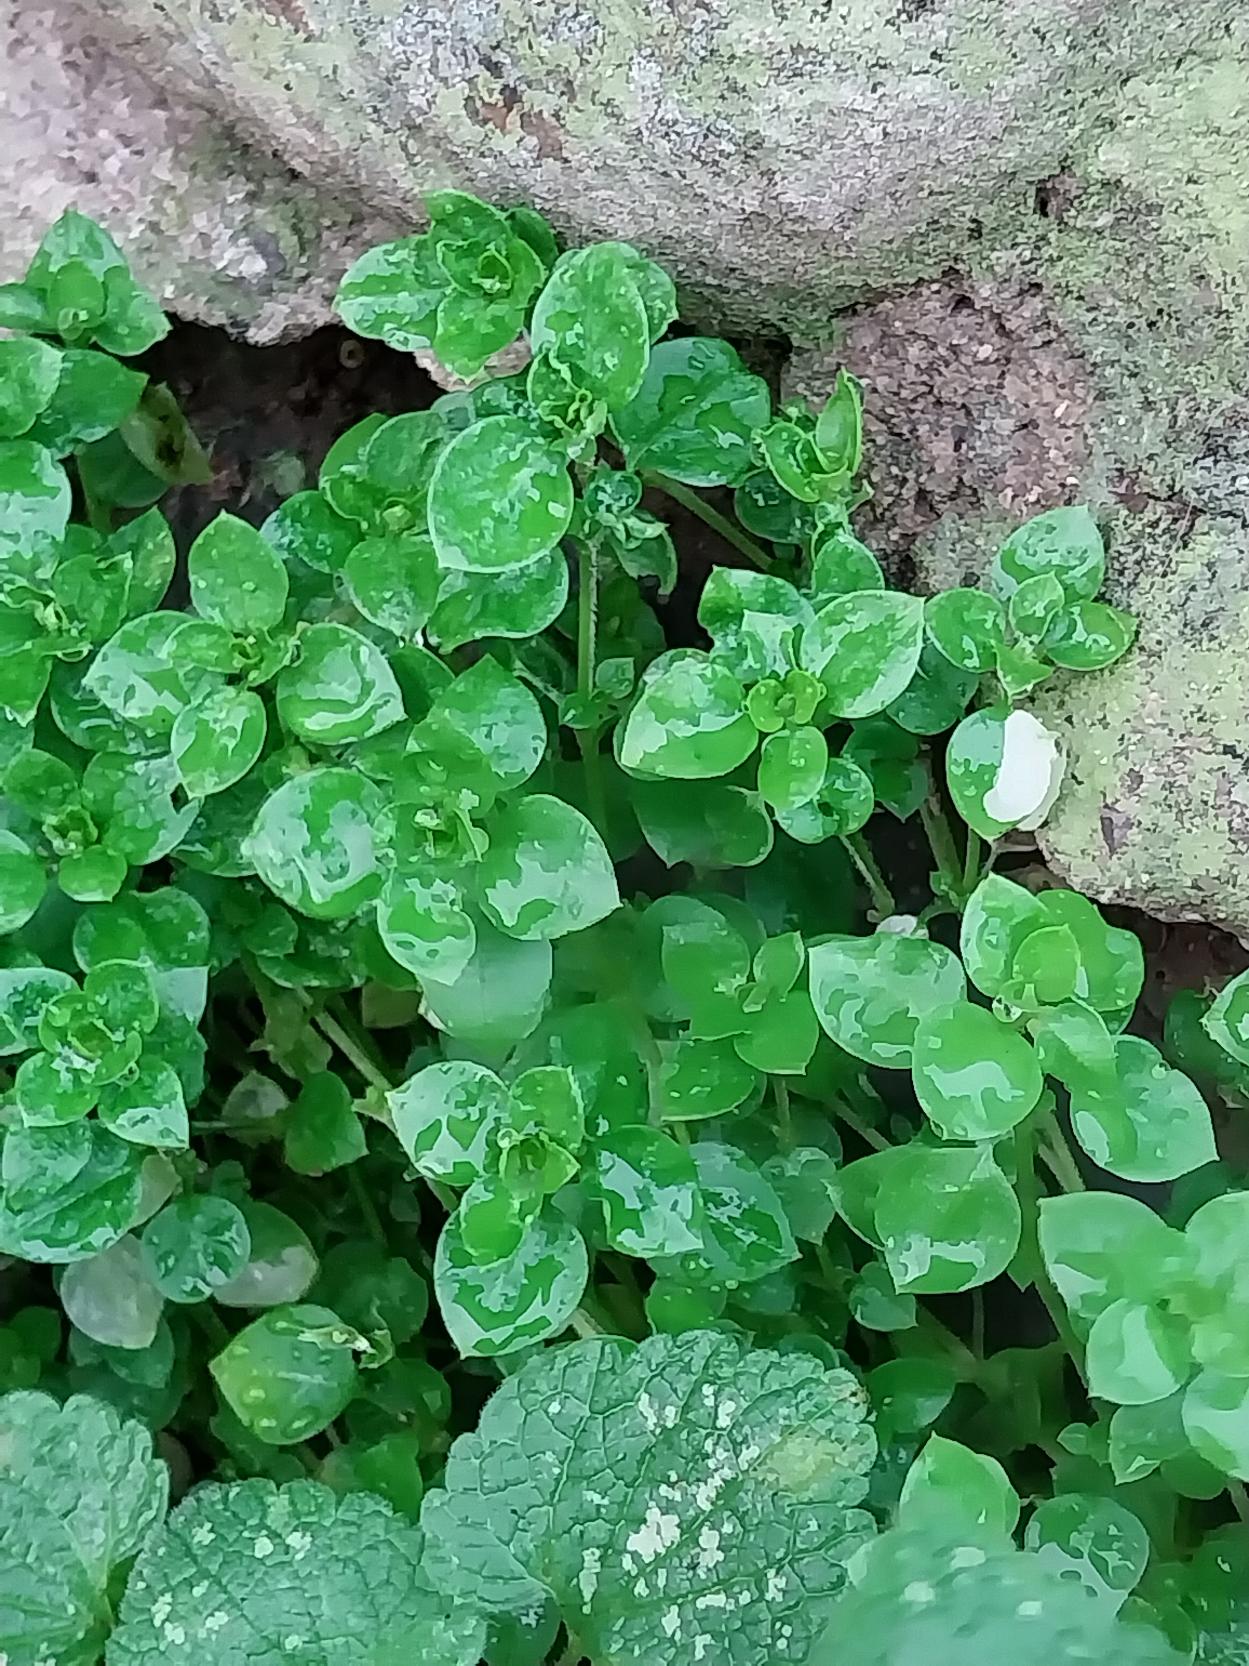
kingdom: Plantae
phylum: Tracheophyta
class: Magnoliopsida
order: Caryophyllales
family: Caryophyllaceae
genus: Stellaria
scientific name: Stellaria media
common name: Almindelig fuglegræs
